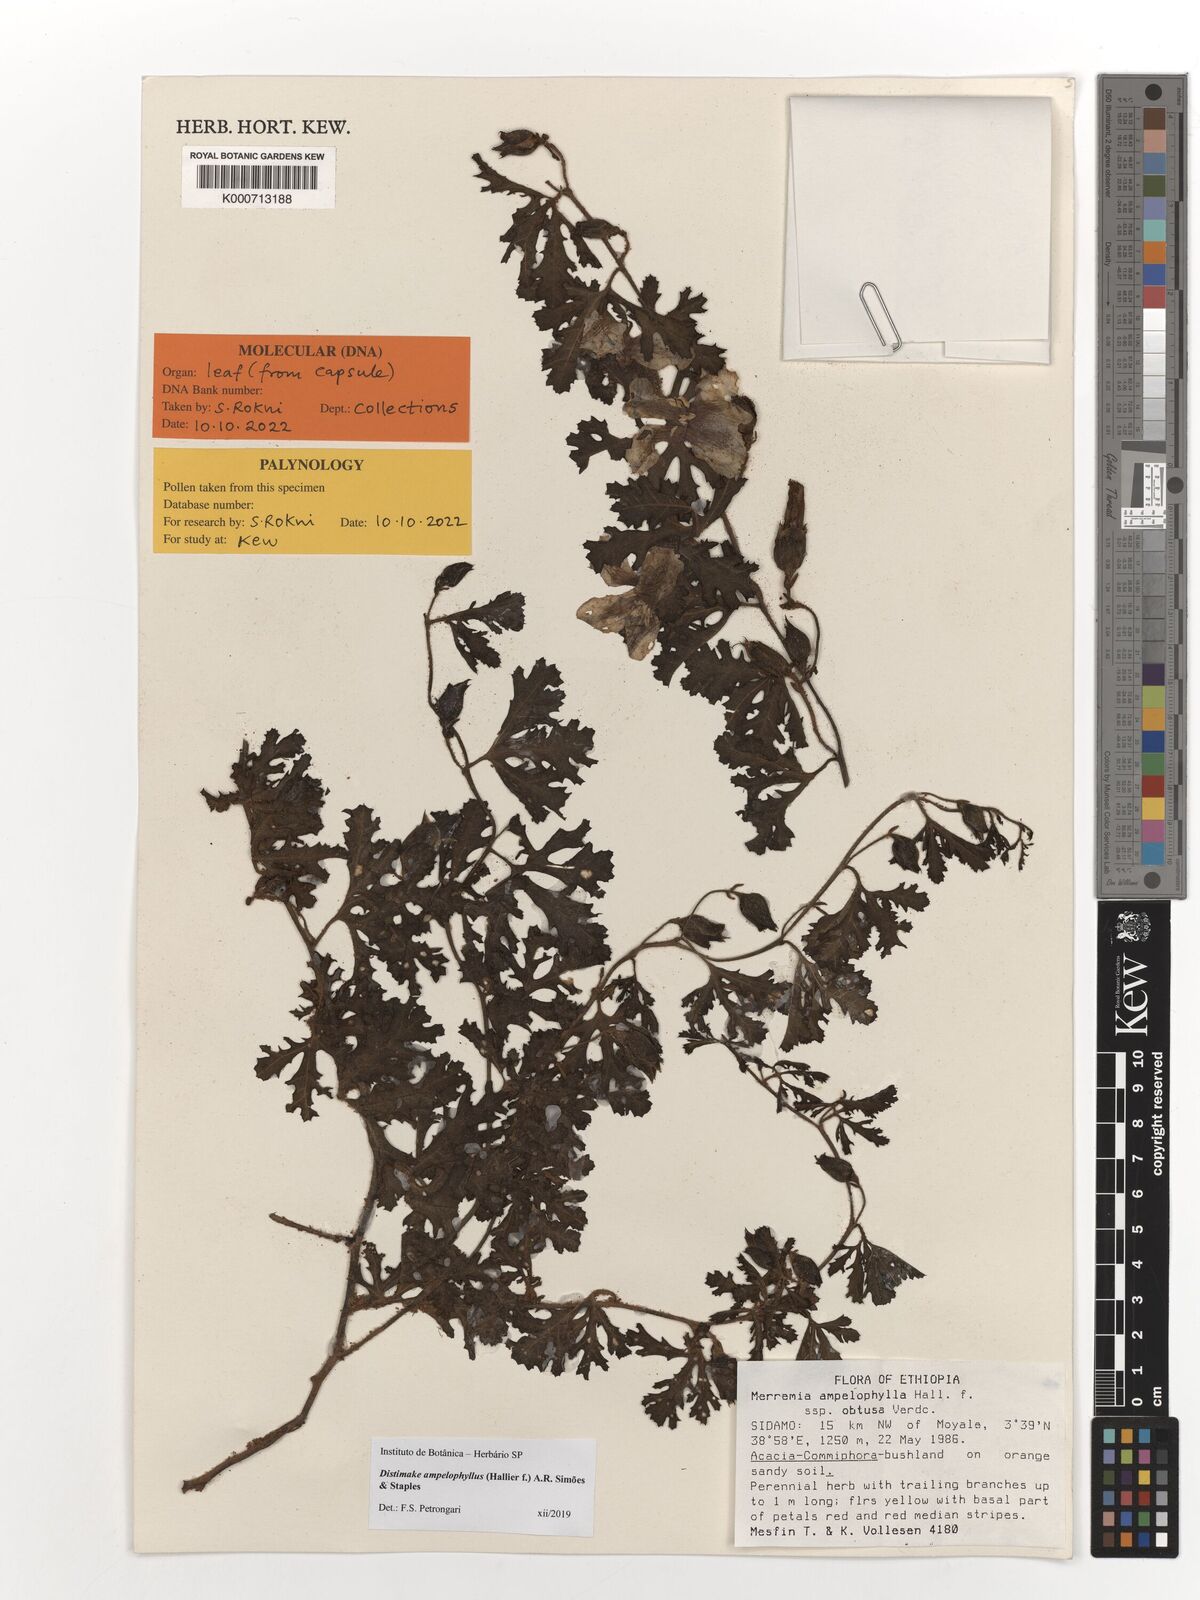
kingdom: Plantae
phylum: Tracheophyta
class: Magnoliopsida
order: Solanales
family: Convolvulaceae
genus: Distimake
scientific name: Distimake ampelophyllus
